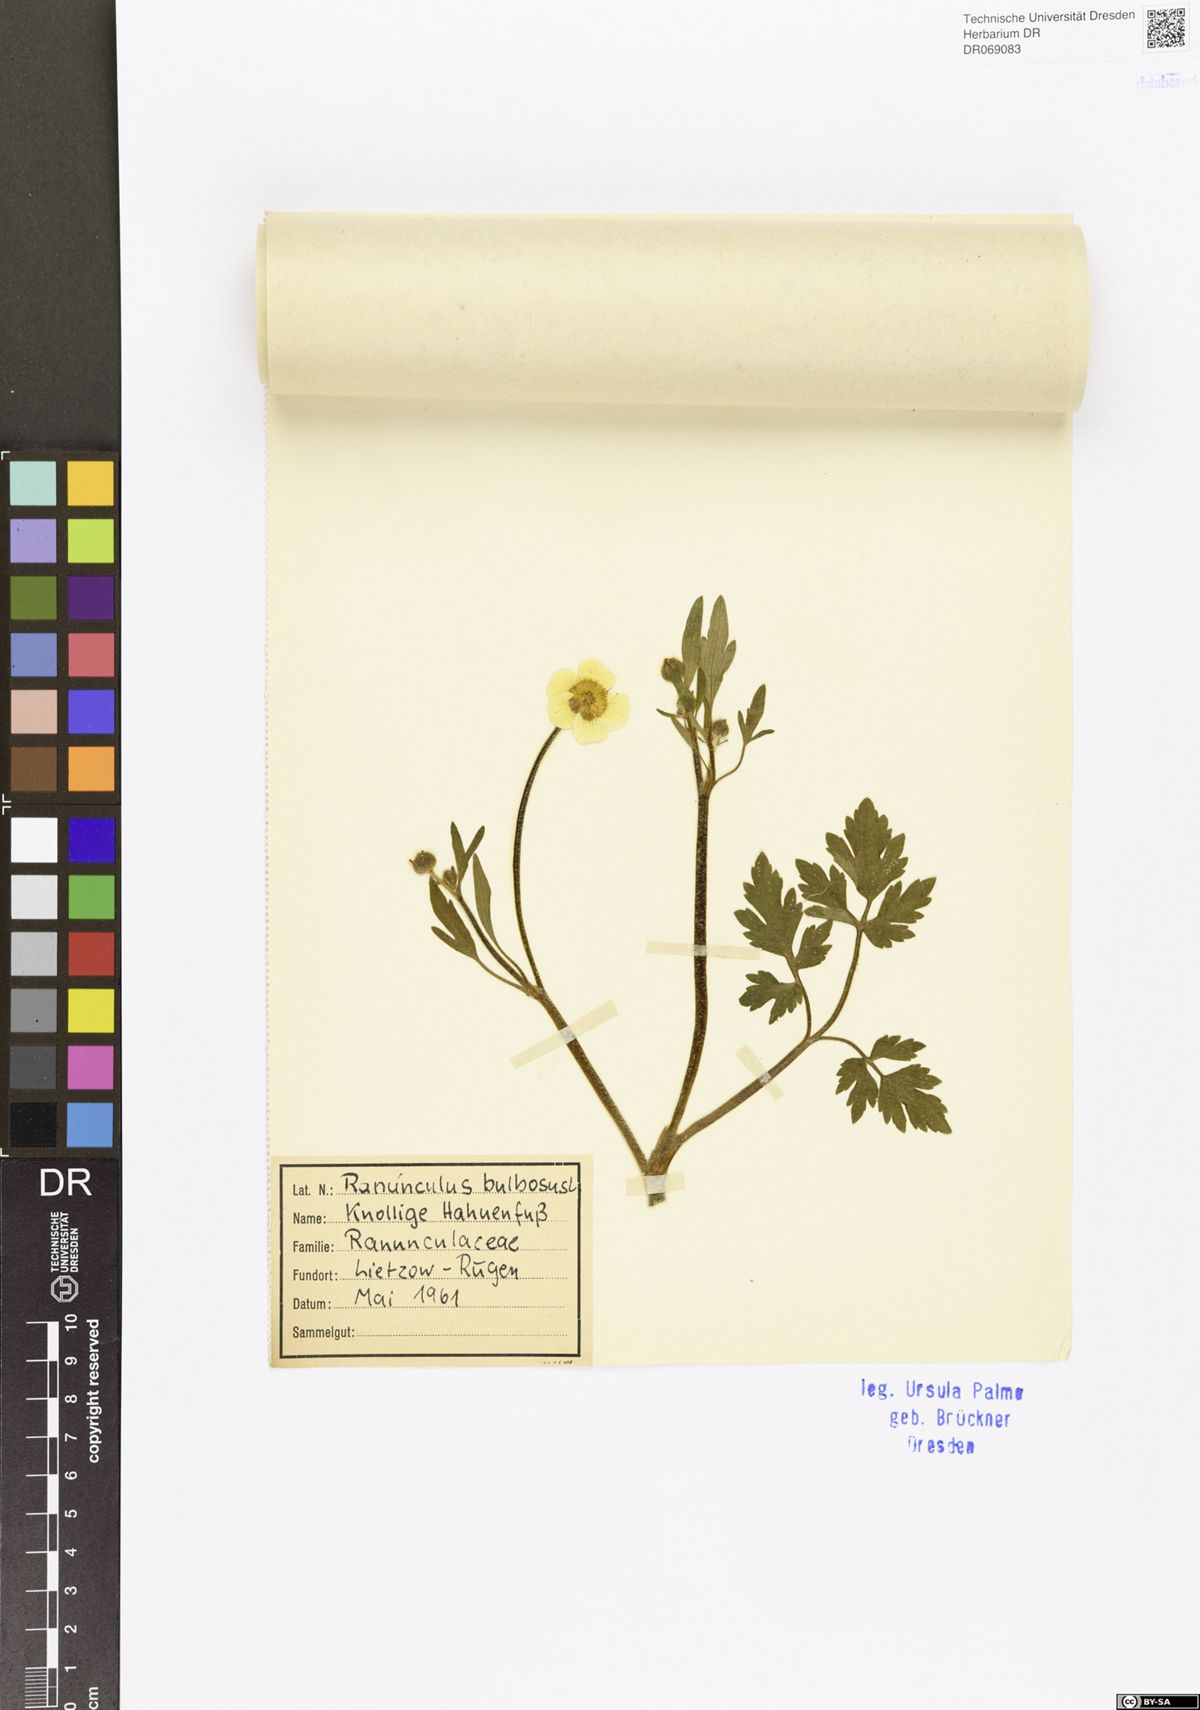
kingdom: Plantae
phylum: Tracheophyta
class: Magnoliopsida
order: Ranunculales
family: Ranunculaceae
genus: Ranunculus
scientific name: Ranunculus bulbosus
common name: Bulbous buttercup
